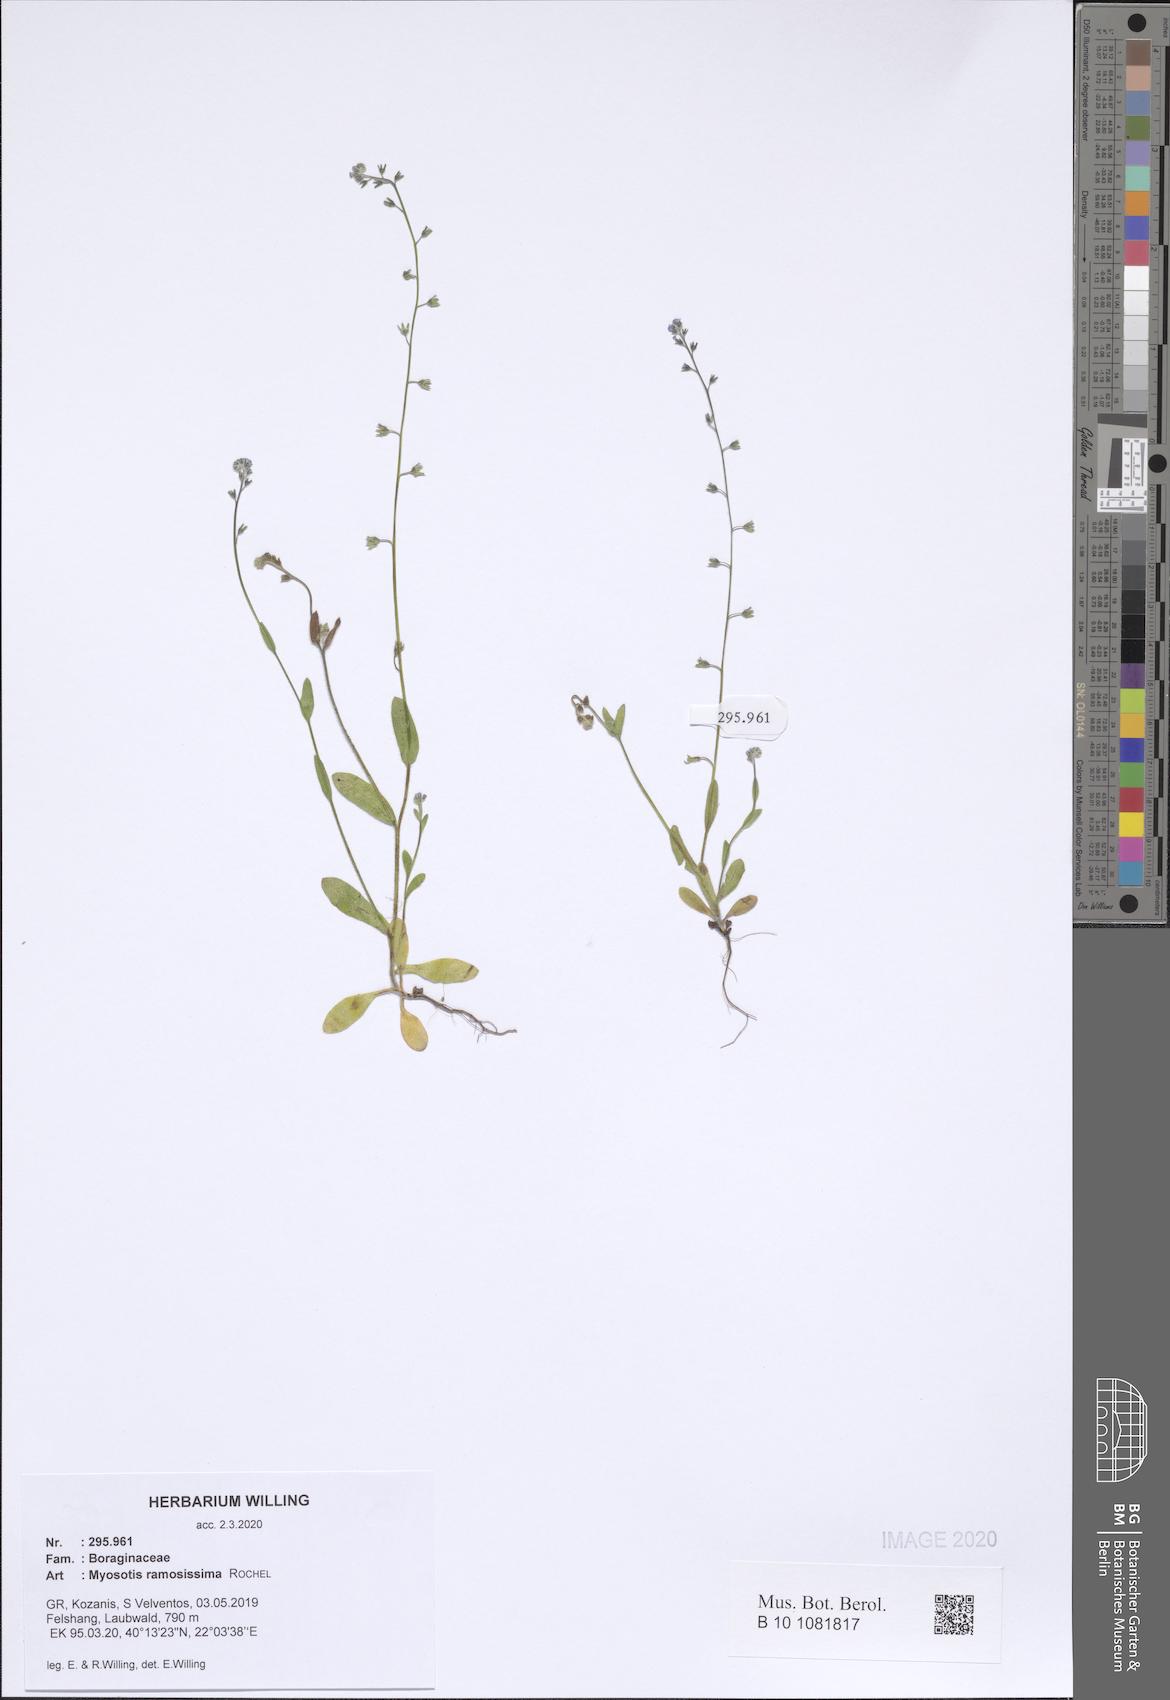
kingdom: Plantae
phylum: Tracheophyta
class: Magnoliopsida
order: Boraginales
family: Boraginaceae
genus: Myosotis
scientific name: Myosotis ramosissima
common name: Early forget-me-not
